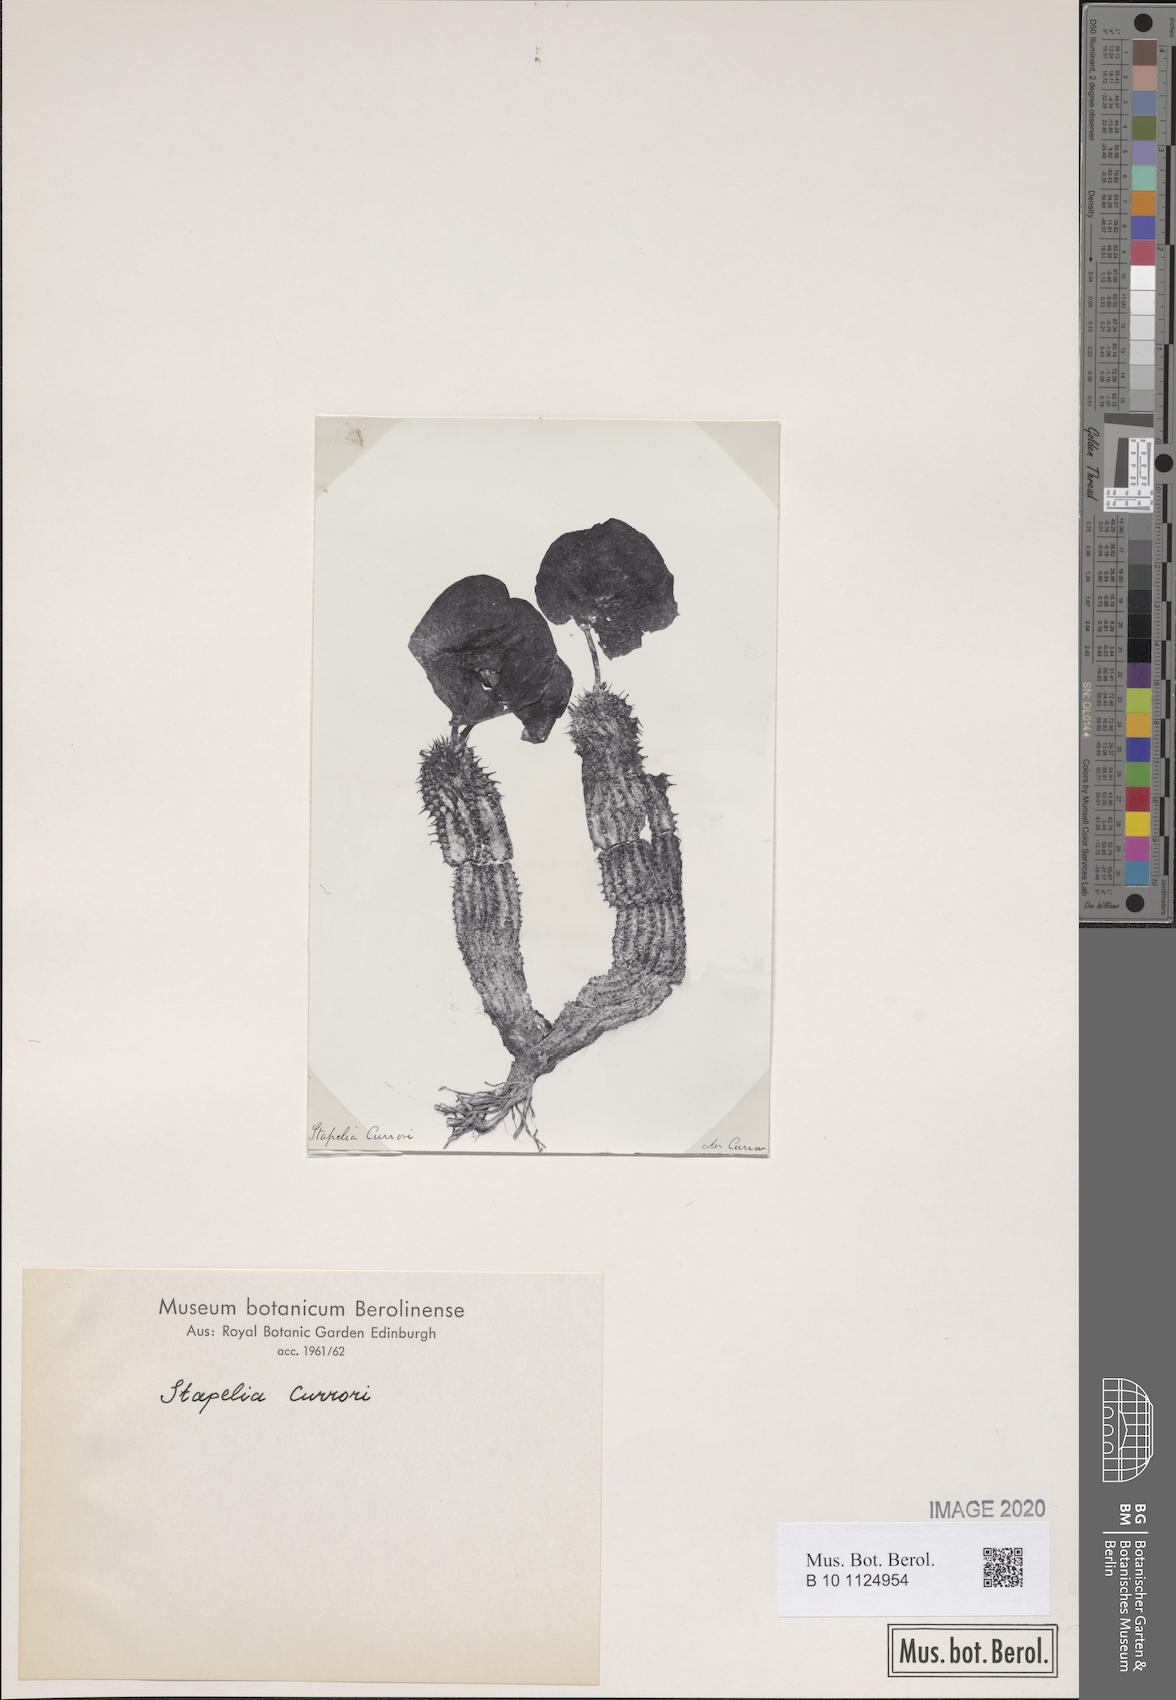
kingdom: Plantae
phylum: Tracheophyta
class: Magnoliopsida
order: Gentianales
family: Apocynaceae
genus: Ceropegia
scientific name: Ceropegia currorii
